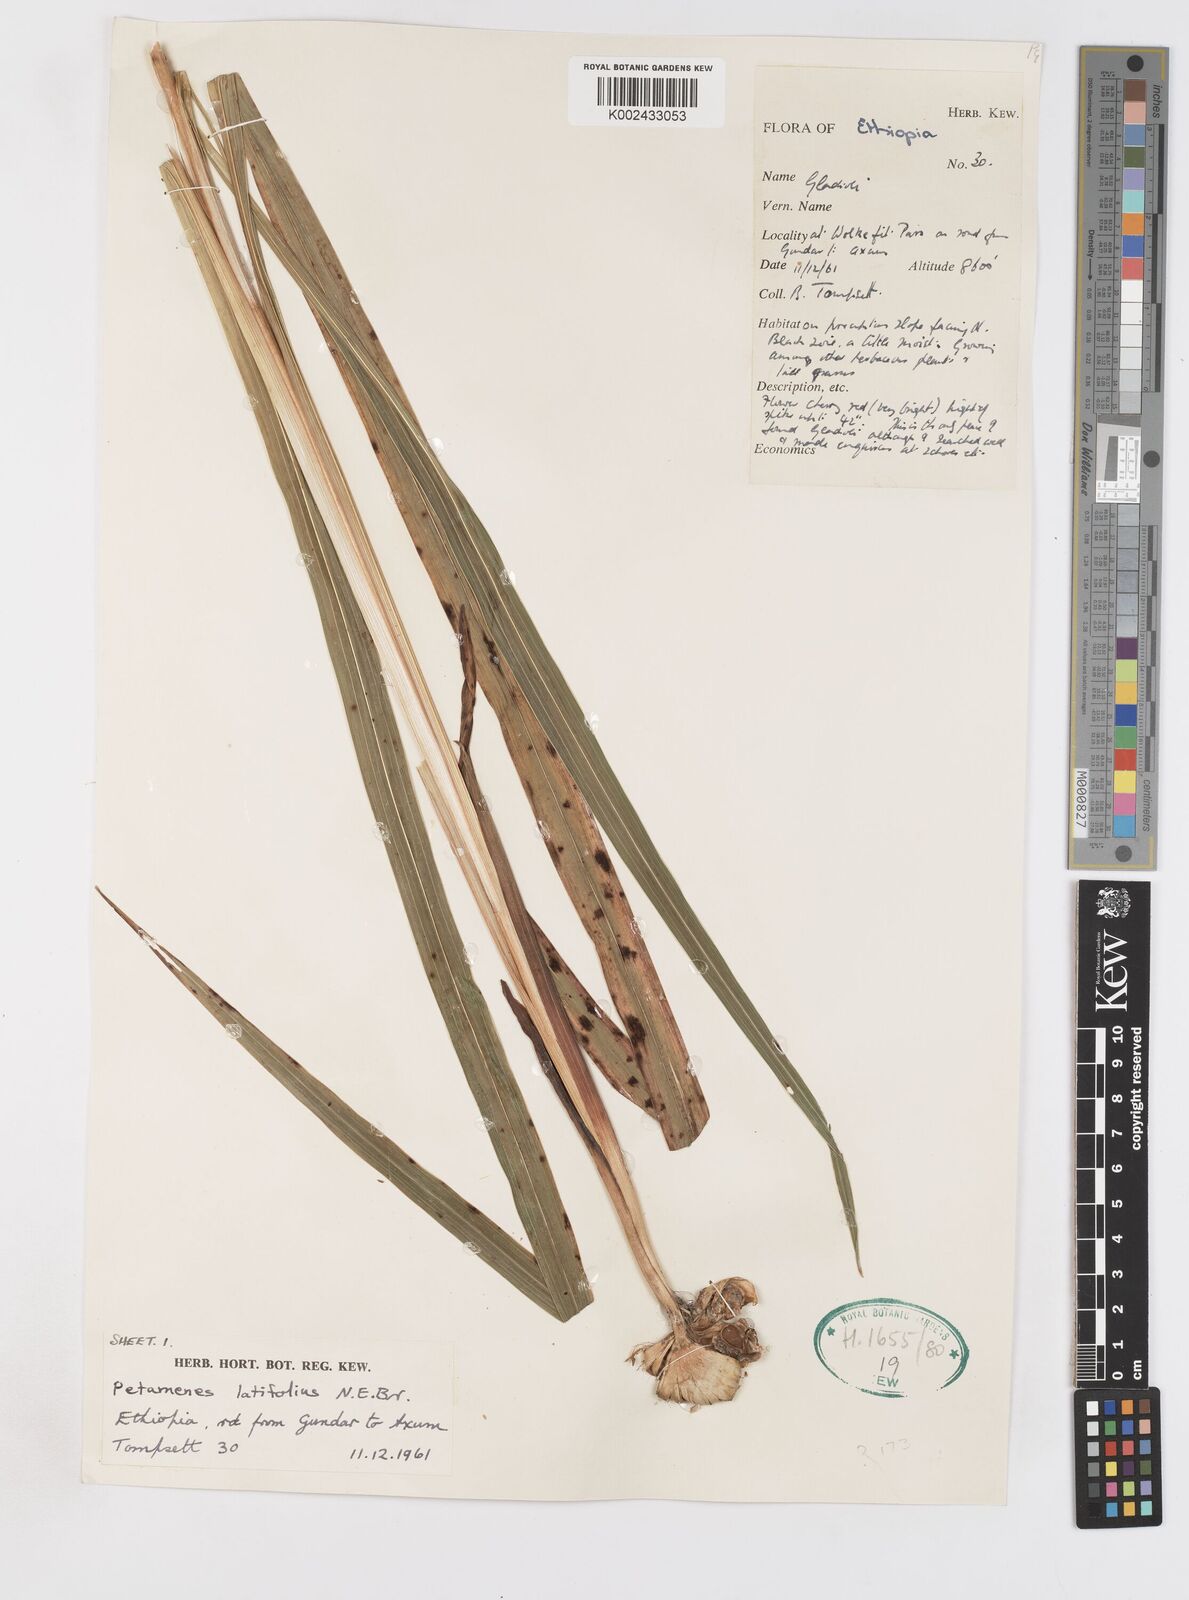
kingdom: Plantae
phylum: Tracheophyta
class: Liliopsida
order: Asparagales
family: Iridaceae
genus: Gladiolus
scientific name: Gladiolus abyssinicus
